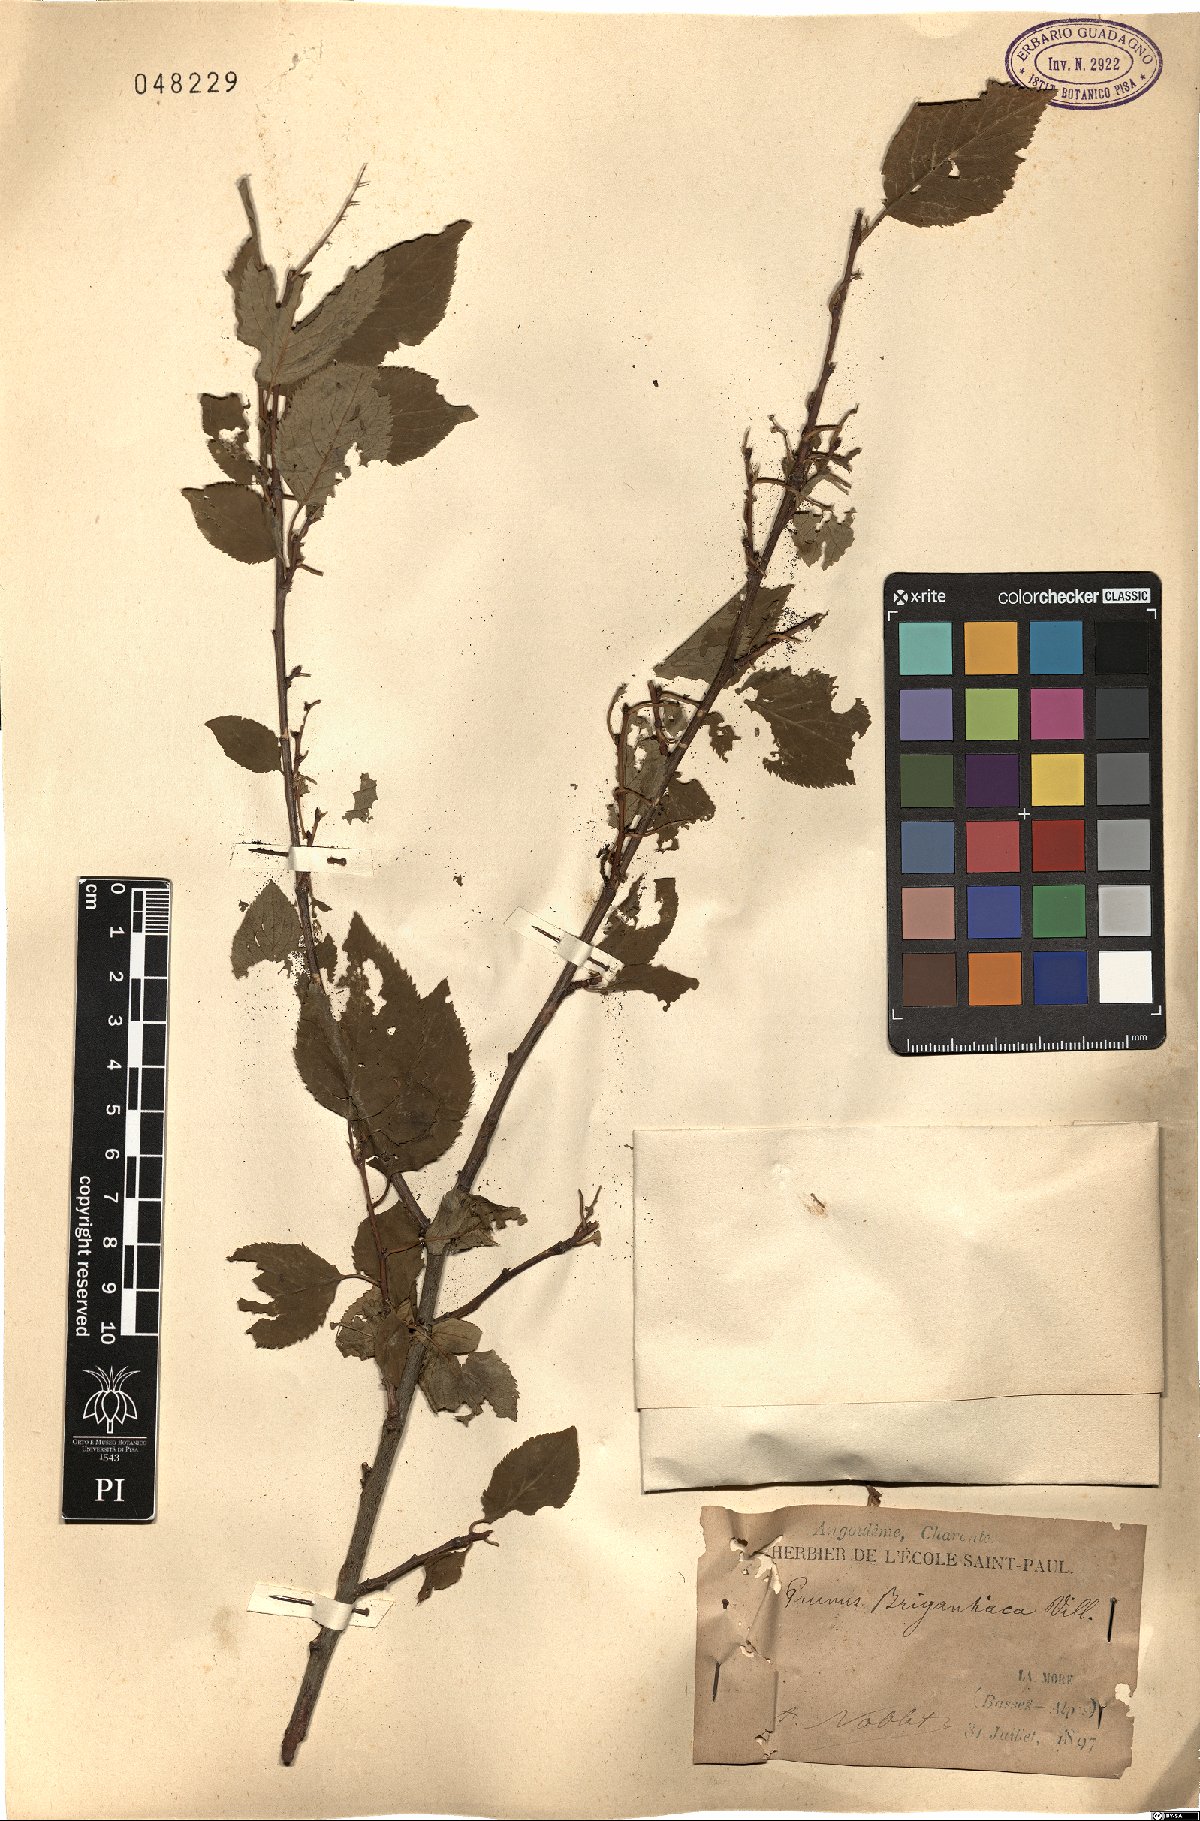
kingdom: Plantae
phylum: Tracheophyta
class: Magnoliopsida
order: Rosales
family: Rosaceae
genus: Prunus
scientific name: Prunus brigantina
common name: Briançon apricot
